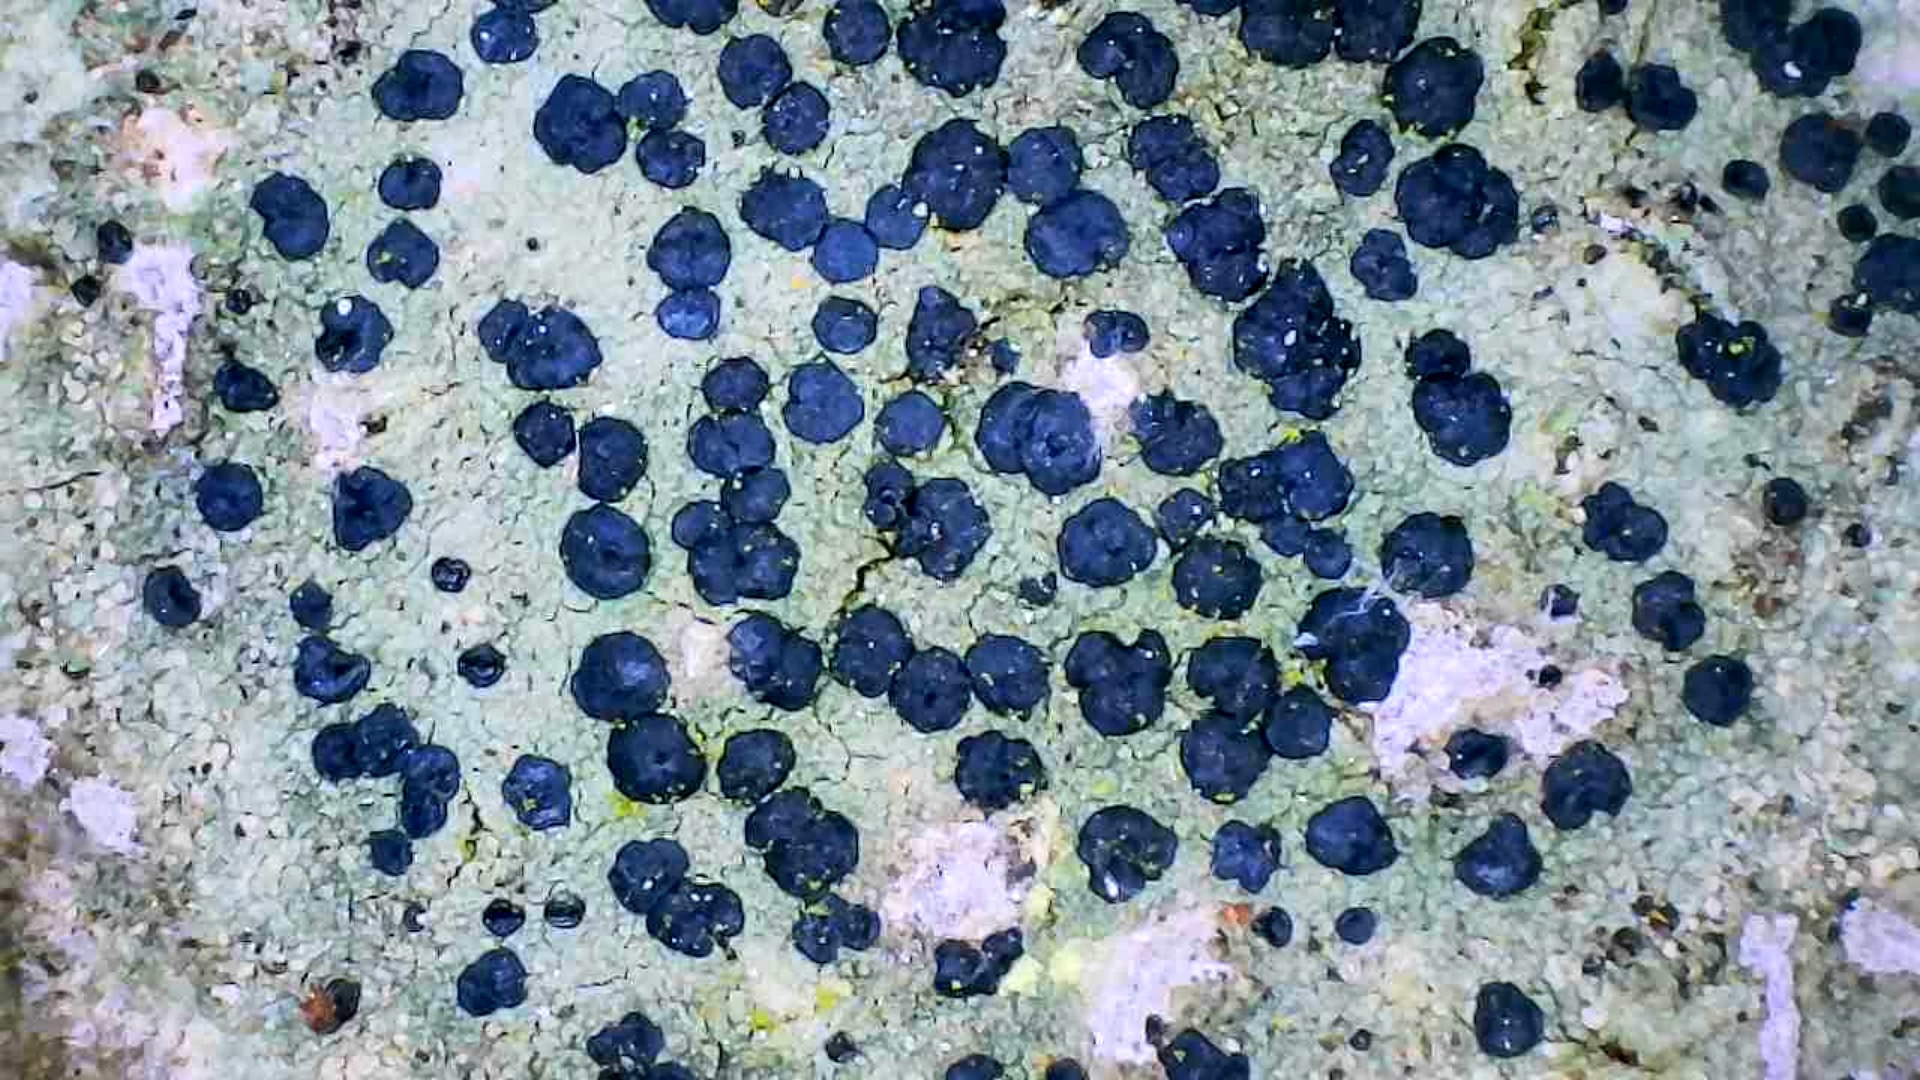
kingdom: Fungi
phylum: Ascomycota
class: Lecanoromycetes
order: Lecanorales
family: Lecanoraceae
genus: Lecidella
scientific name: Lecidella euphorea
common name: vortet skivelav
